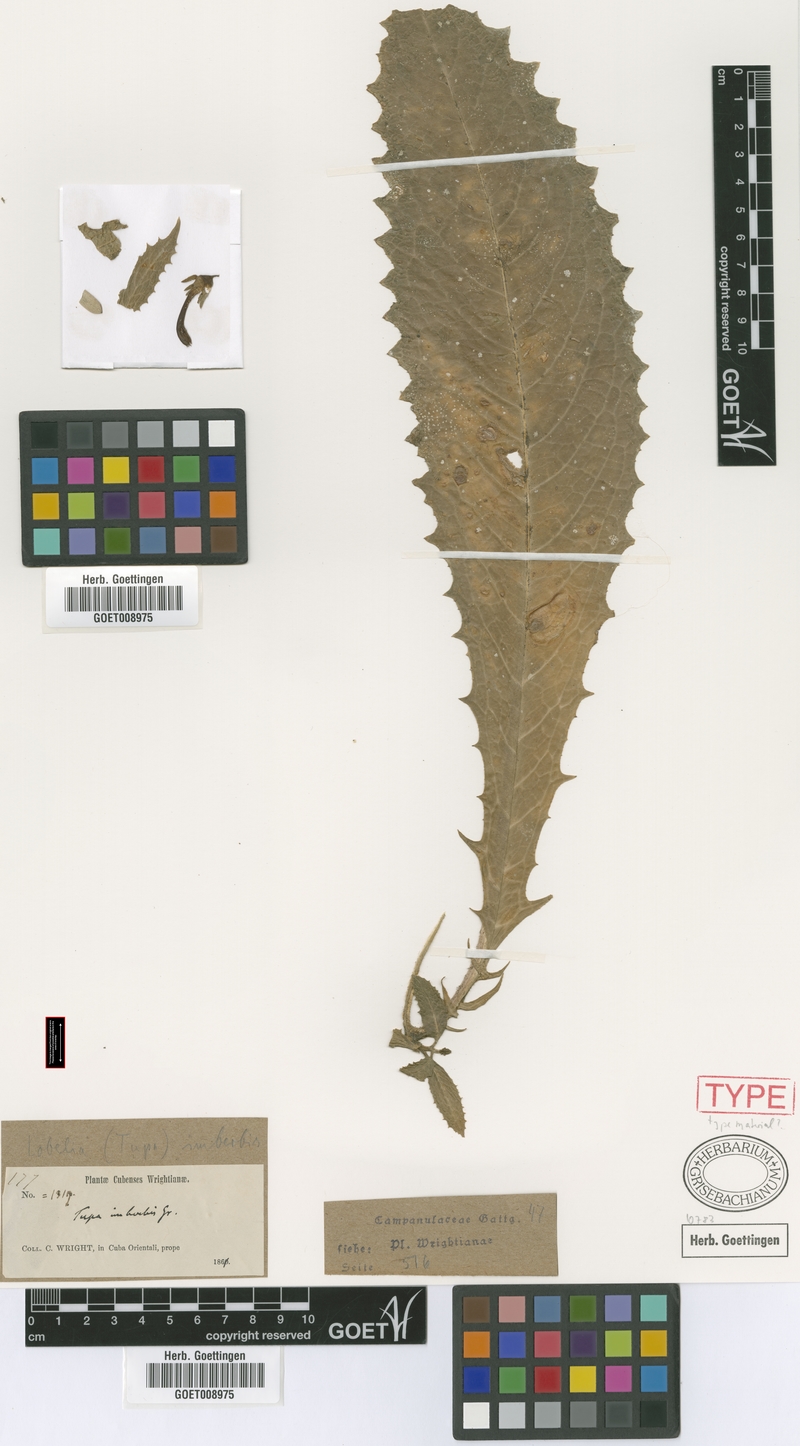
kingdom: Plantae
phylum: Tracheophyta
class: Magnoliopsida
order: Asterales
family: Campanulaceae
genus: Lobelia
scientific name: Lobelia imberbis
